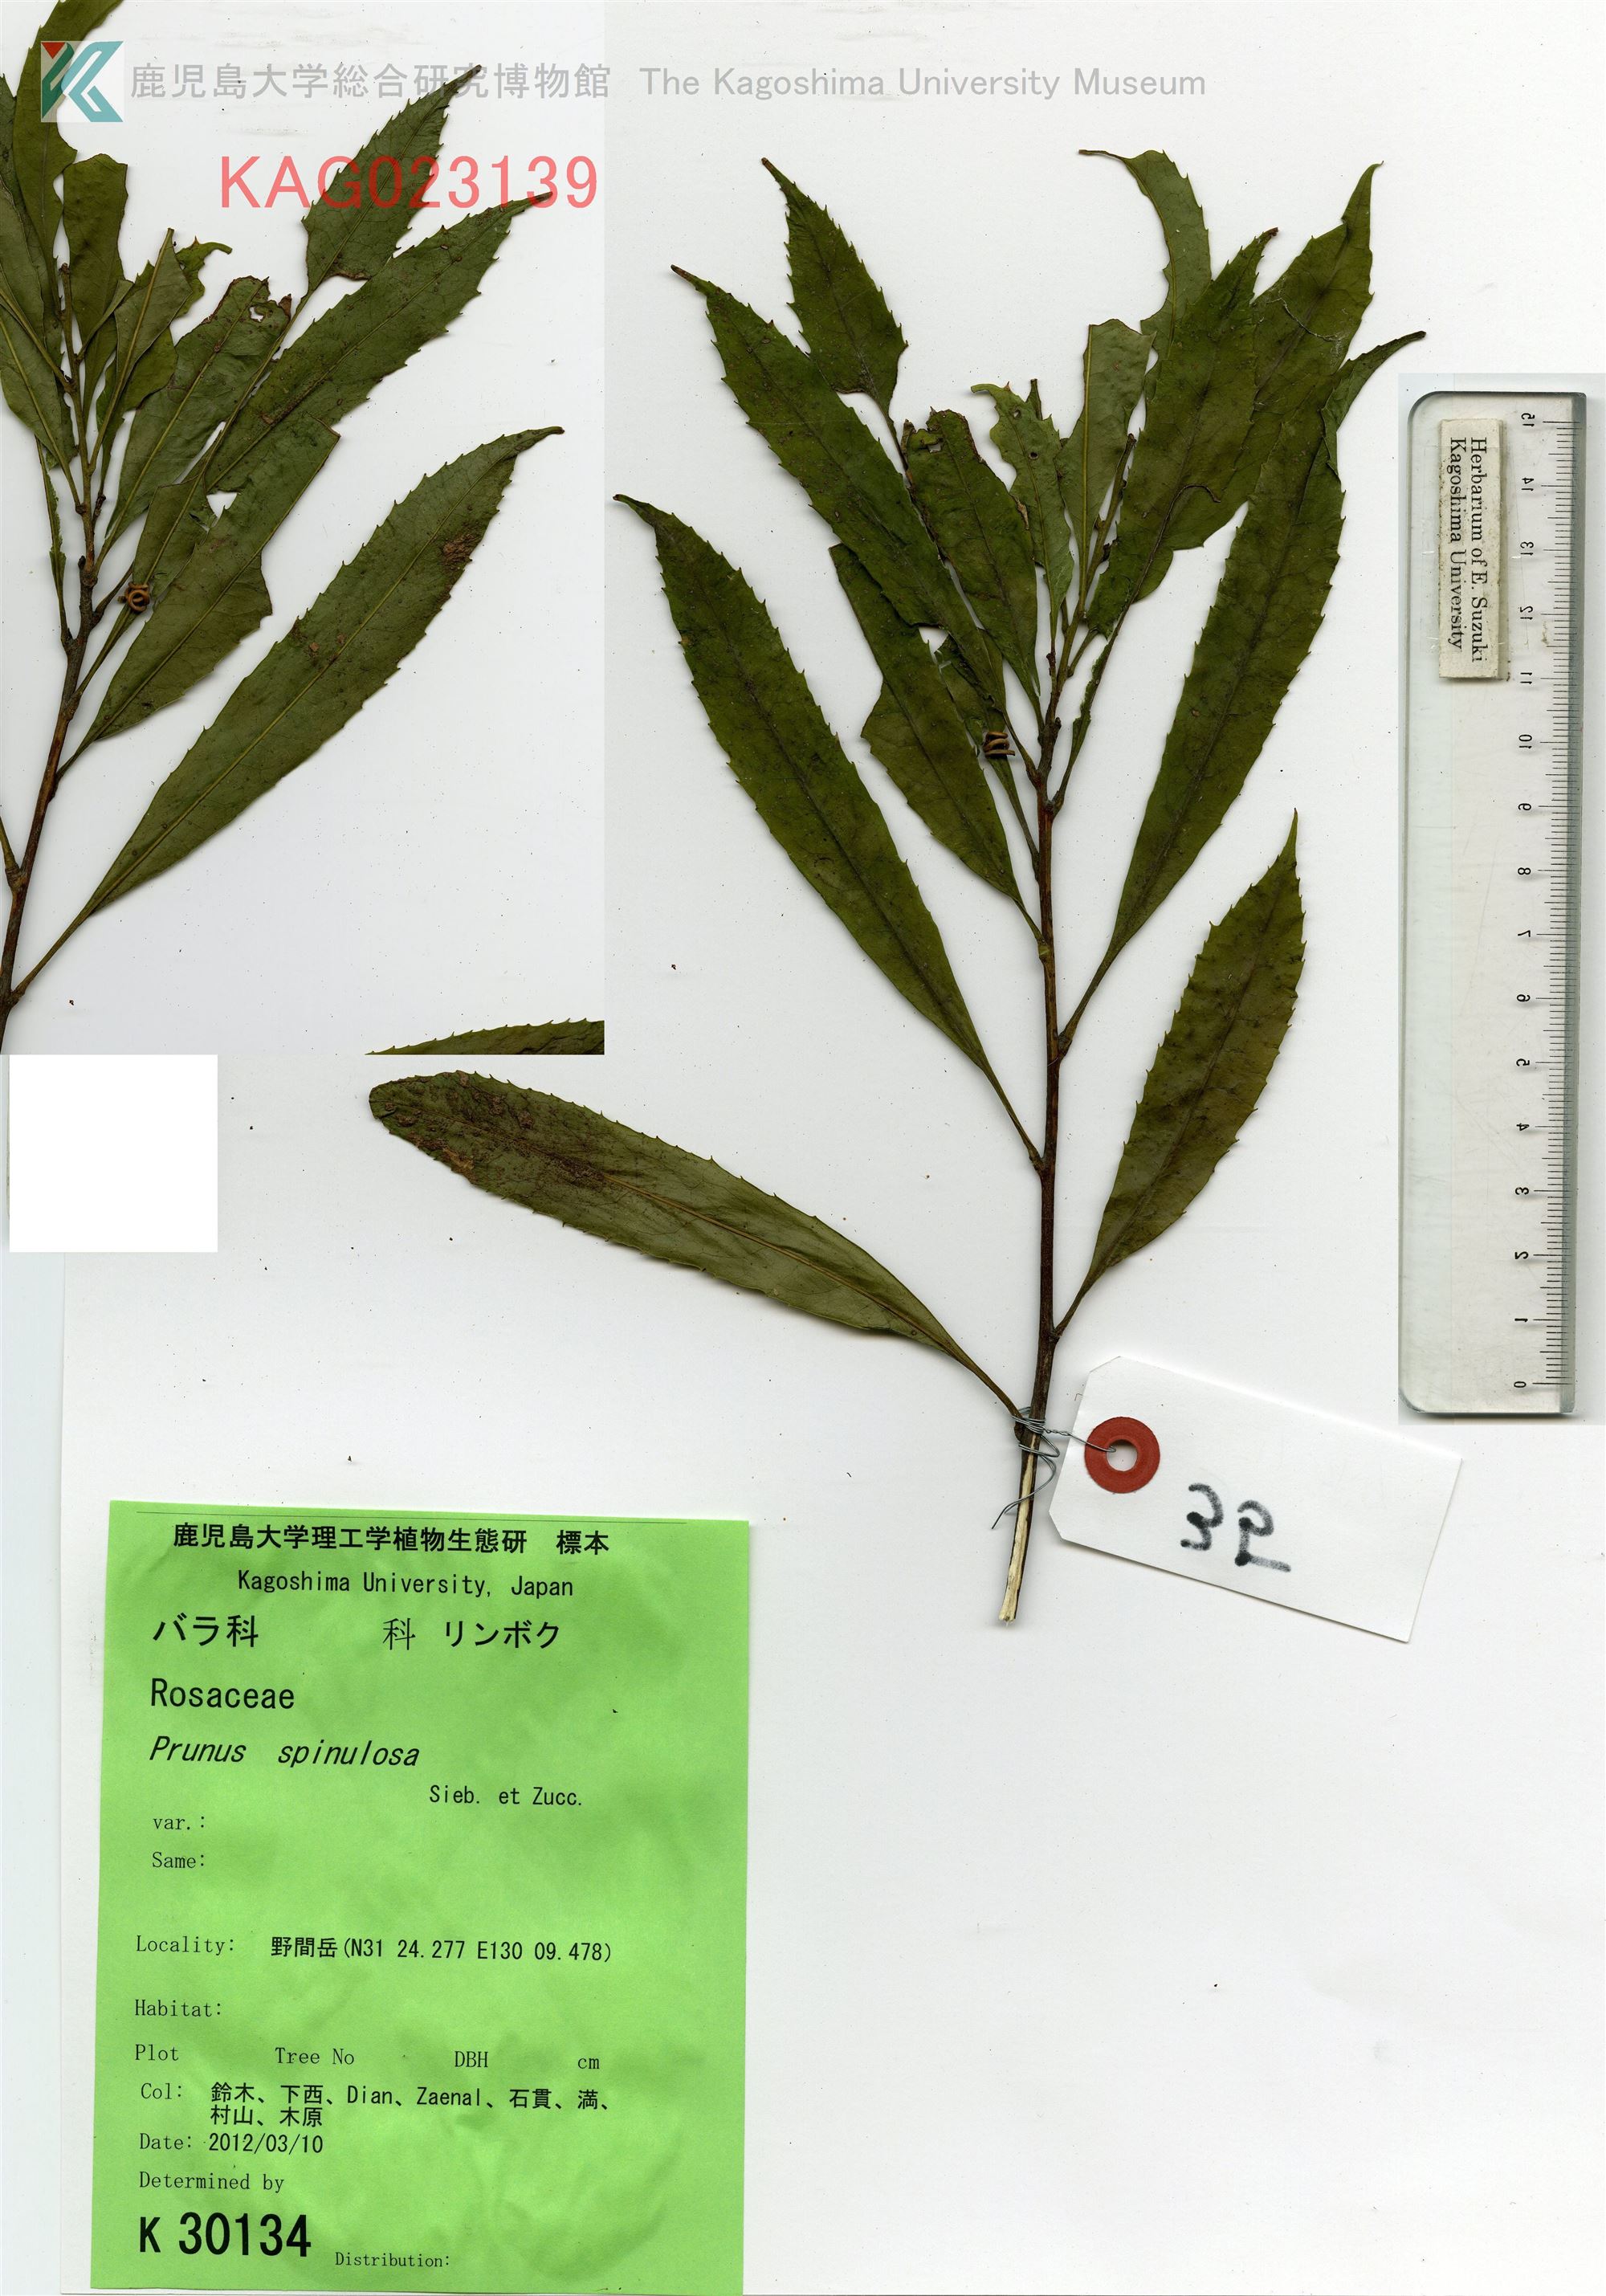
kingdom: Plantae
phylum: Tracheophyta
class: Magnoliopsida
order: Proteales
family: Proteaceae
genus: Helicia
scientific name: Helicia cochinchinensis
